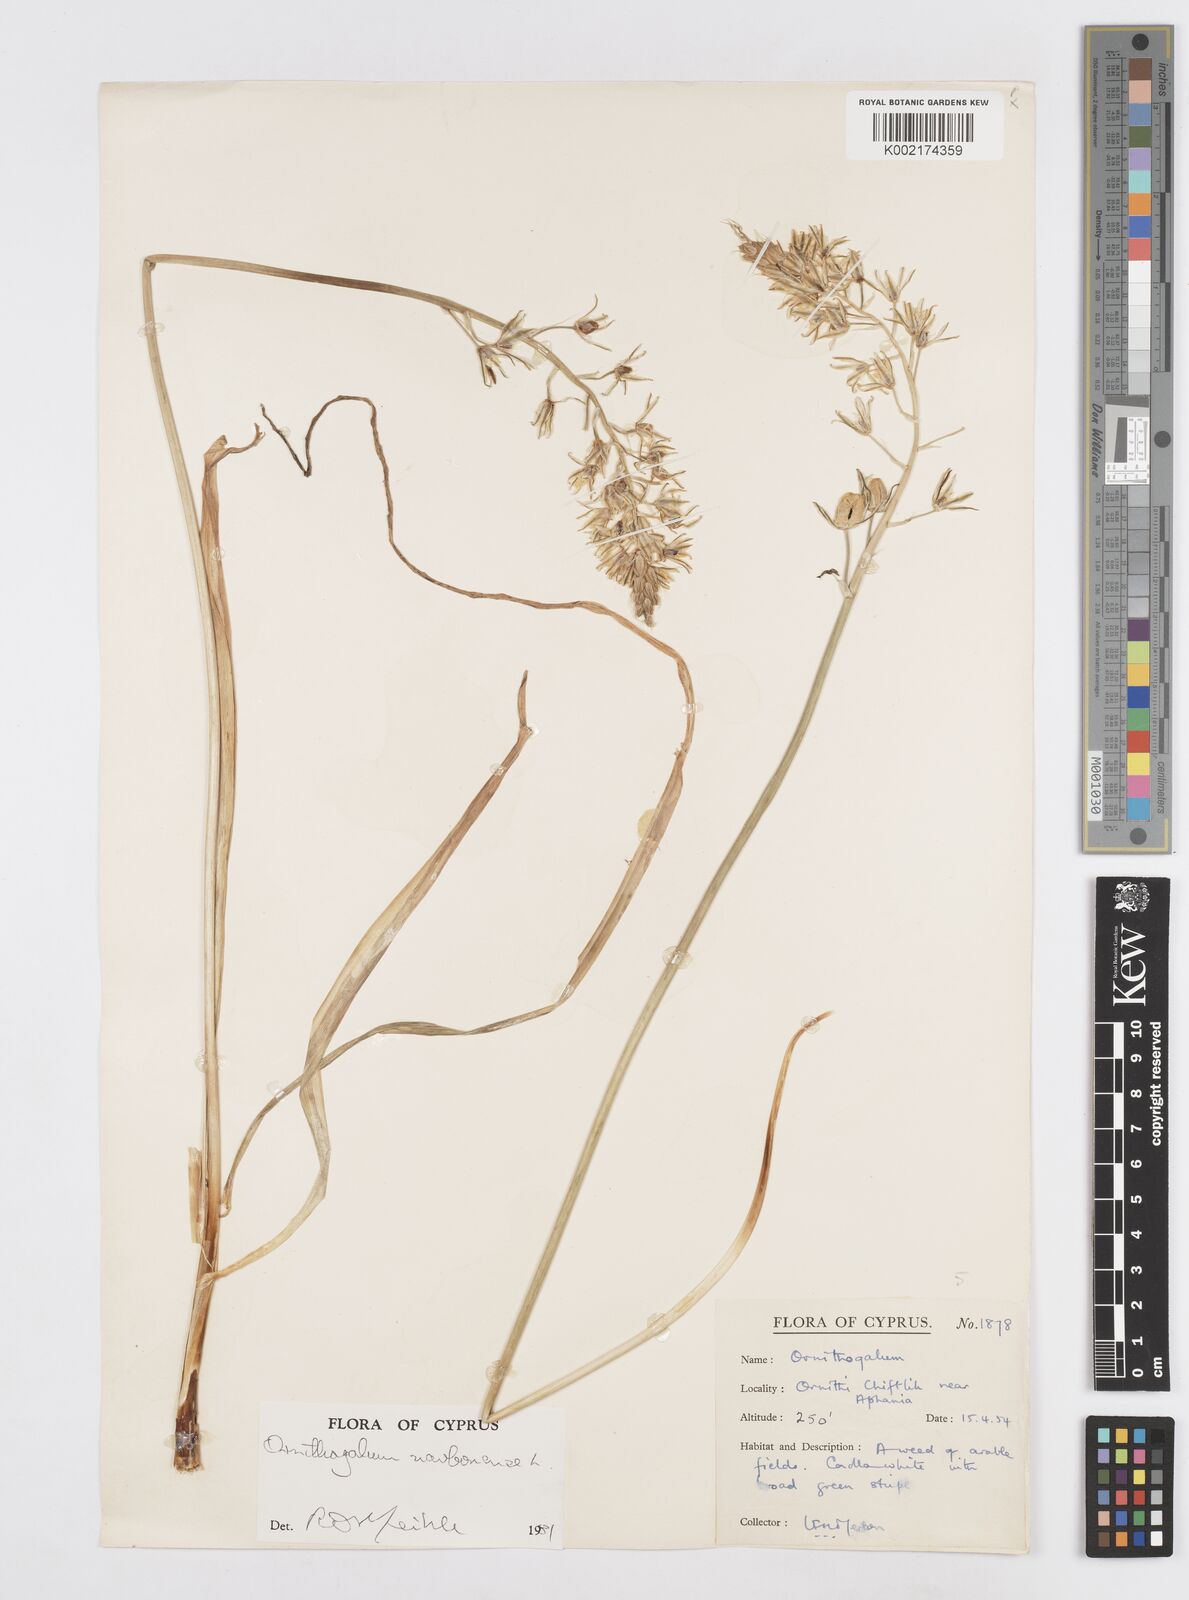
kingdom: Plantae
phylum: Tracheophyta
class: Liliopsida
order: Asparagales
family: Asparagaceae
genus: Ornithogalum
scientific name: Ornithogalum narbonense
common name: Bath-asparagus
